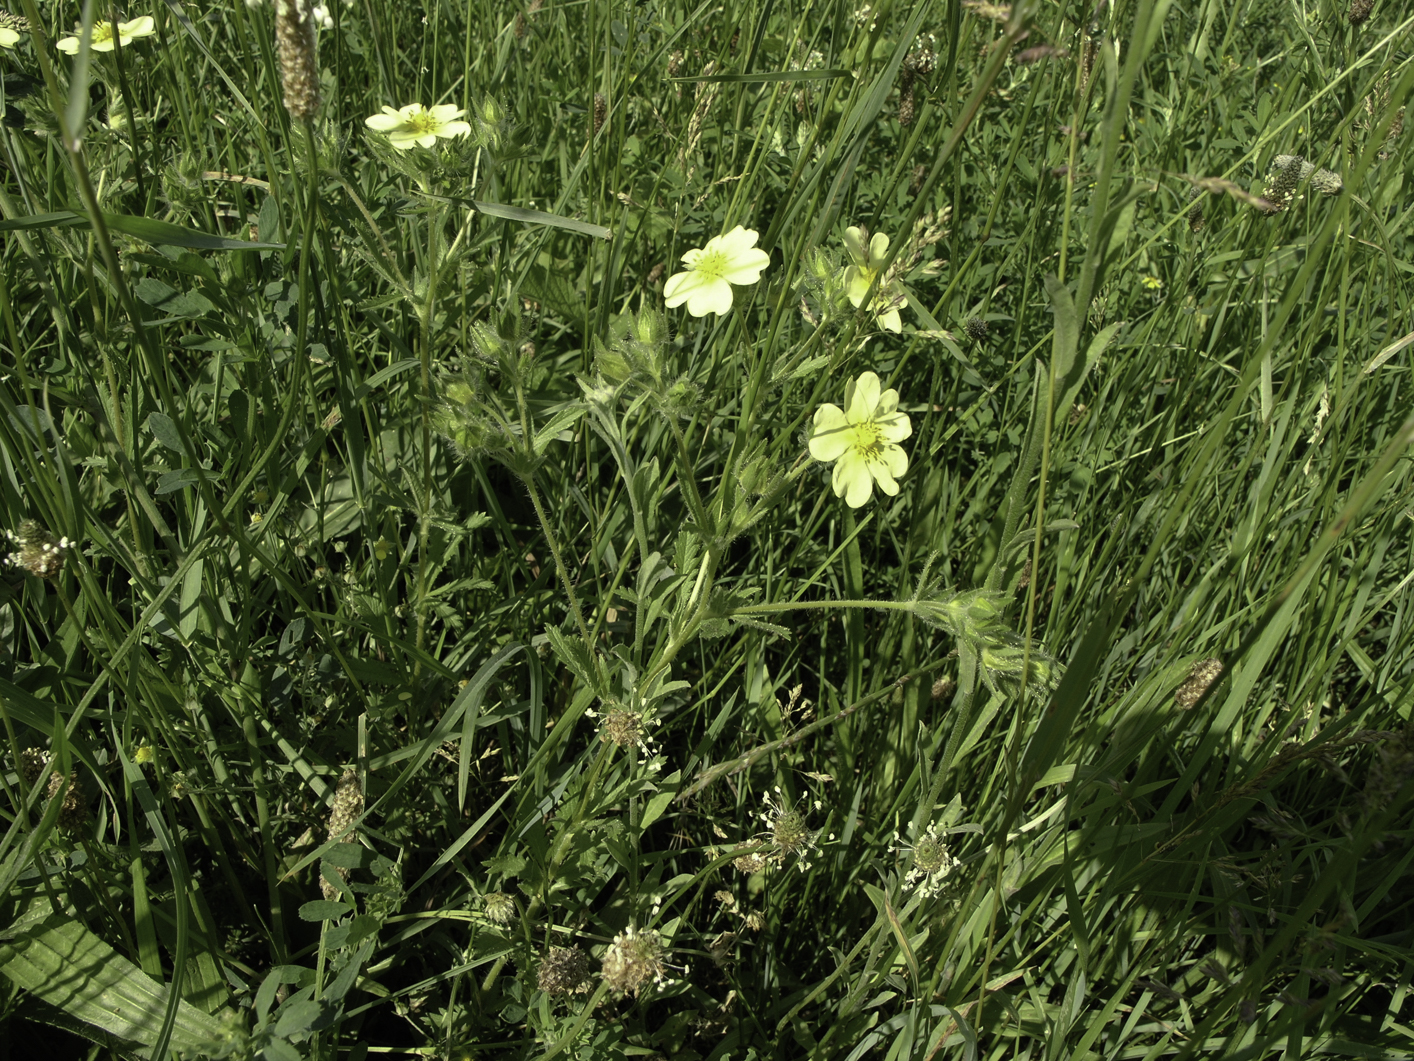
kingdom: Plantae
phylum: Tracheophyta
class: Magnoliopsida
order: Rosales
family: Rosaceae
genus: Potentilla
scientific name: Potentilla recta
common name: Sulphur cinquefoil
